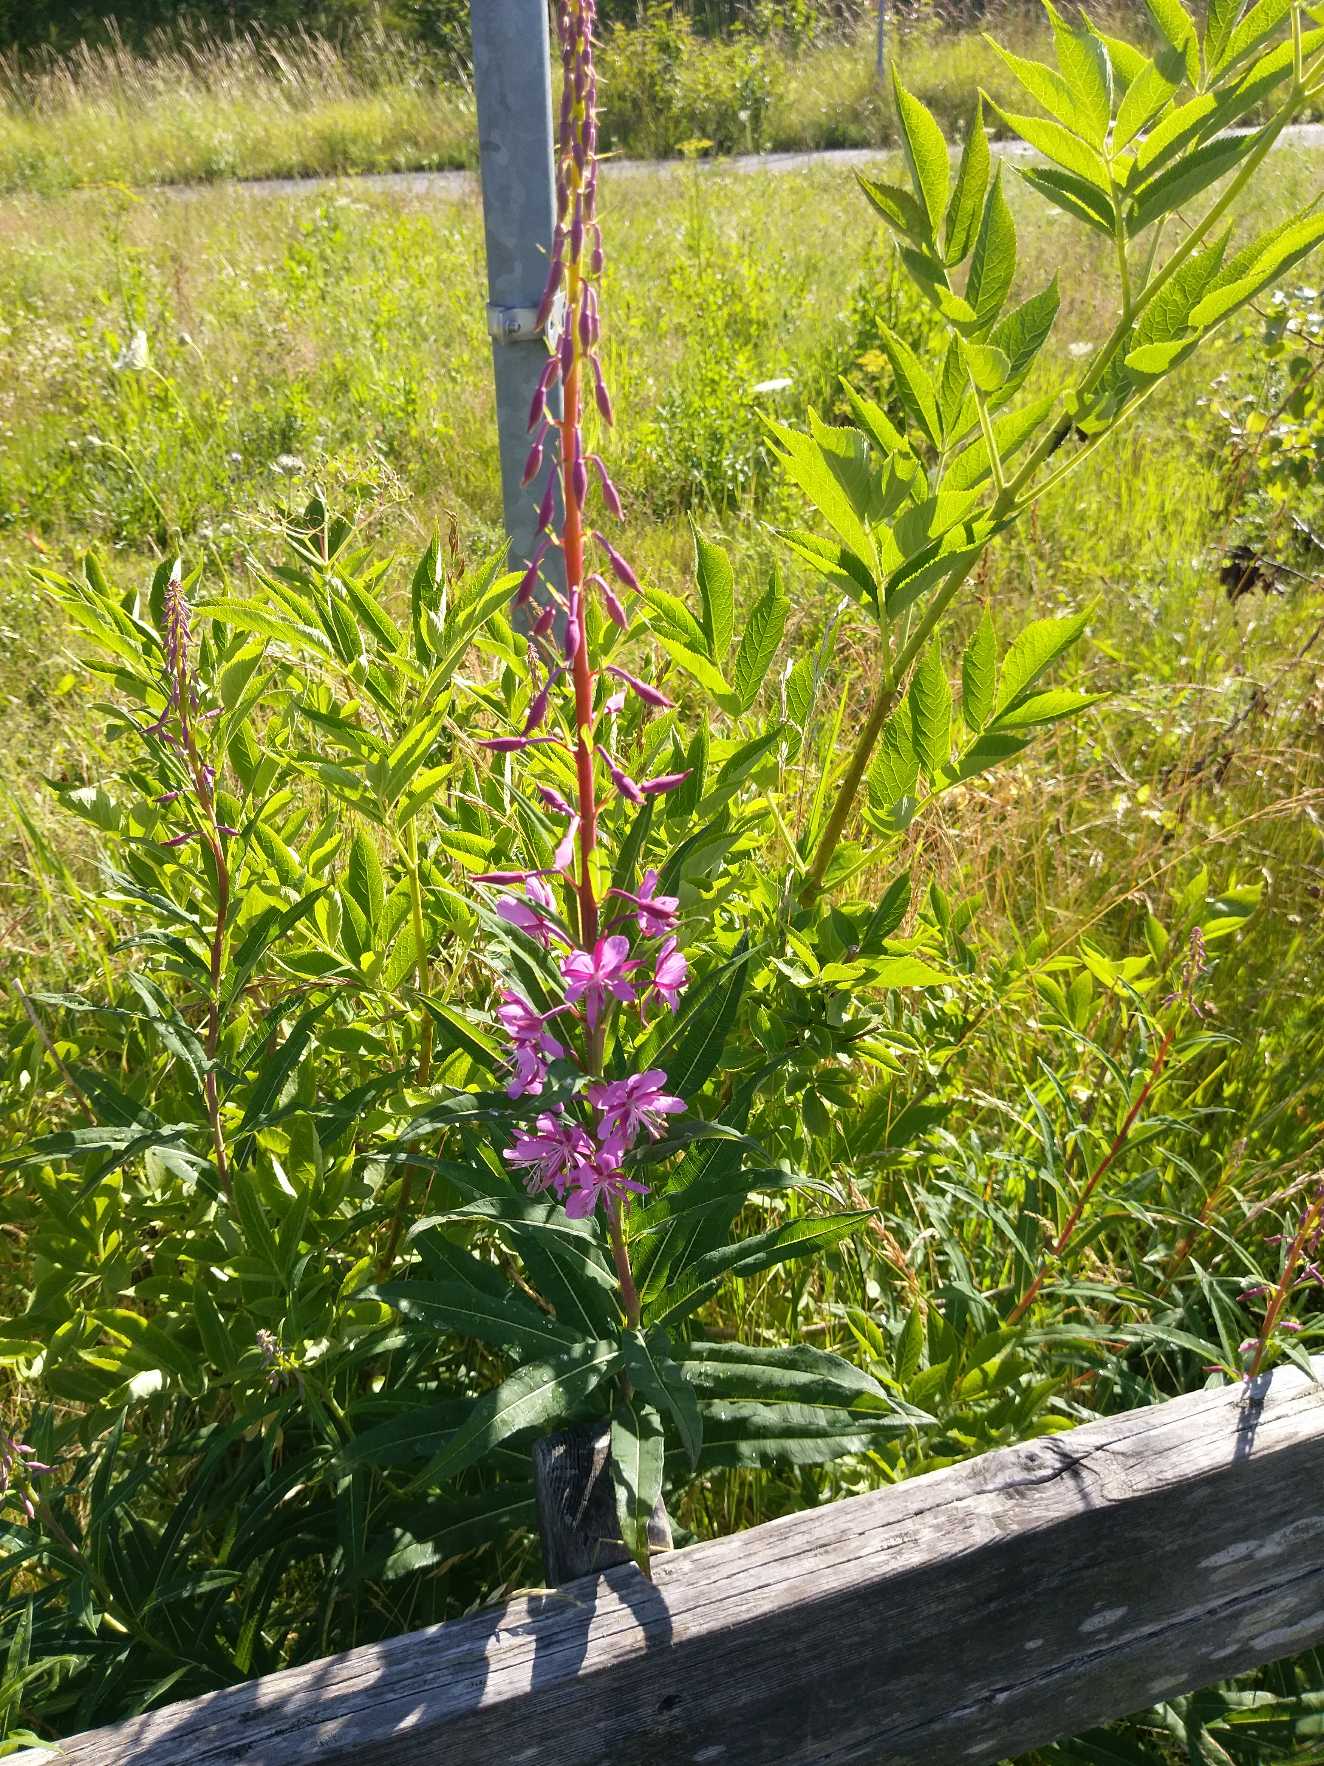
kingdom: Plantae
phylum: Tracheophyta
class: Magnoliopsida
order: Myrtales
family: Onagraceae
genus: Chamaenerion
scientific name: Chamaenerion angustifolium
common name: Gederams
